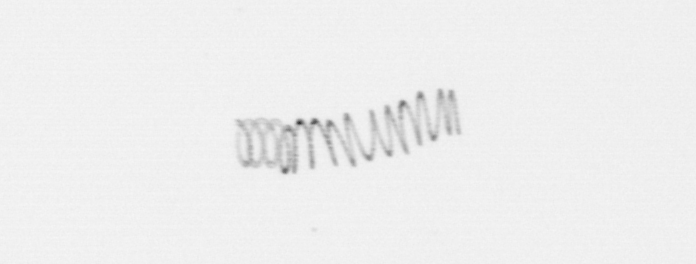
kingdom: Chromista
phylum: Ochrophyta
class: Bacillariophyceae
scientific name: Bacillariophyceae
